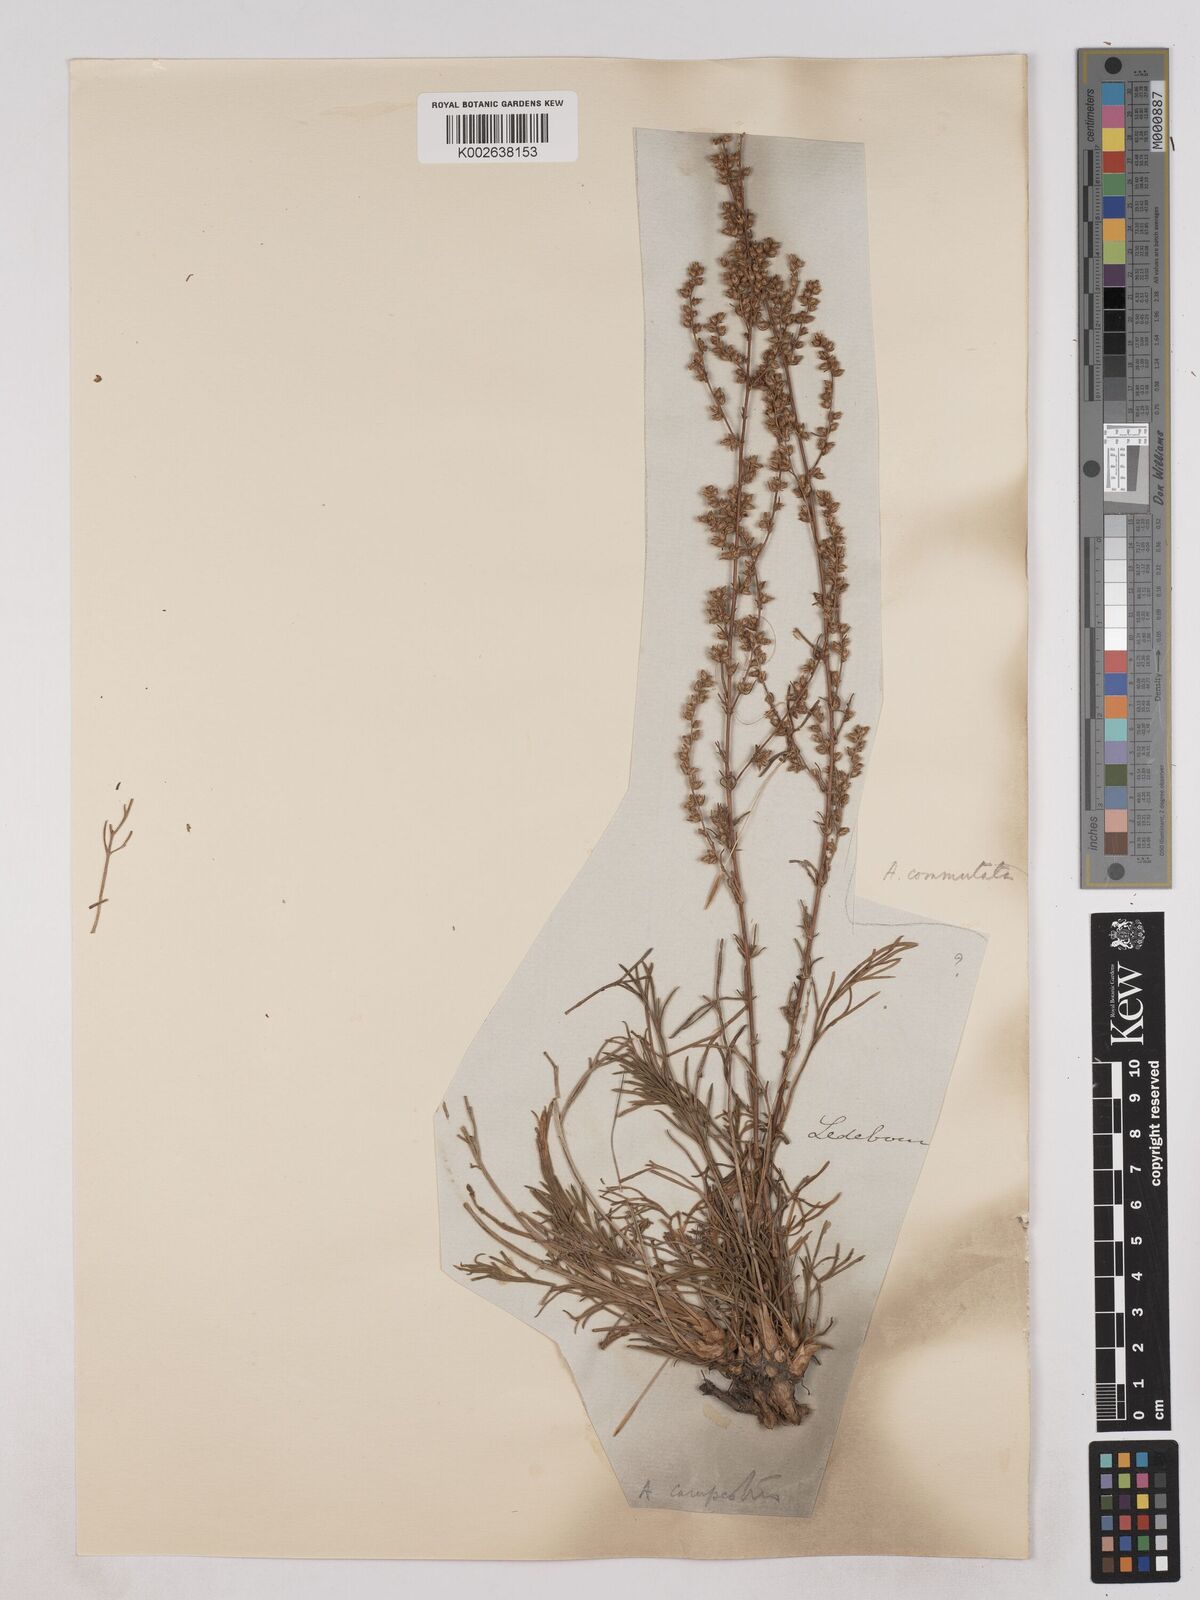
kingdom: Plantae
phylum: Tracheophyta
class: Magnoliopsida
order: Asterales
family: Asteraceae
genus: Artemisia
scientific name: Artemisia pubescens
